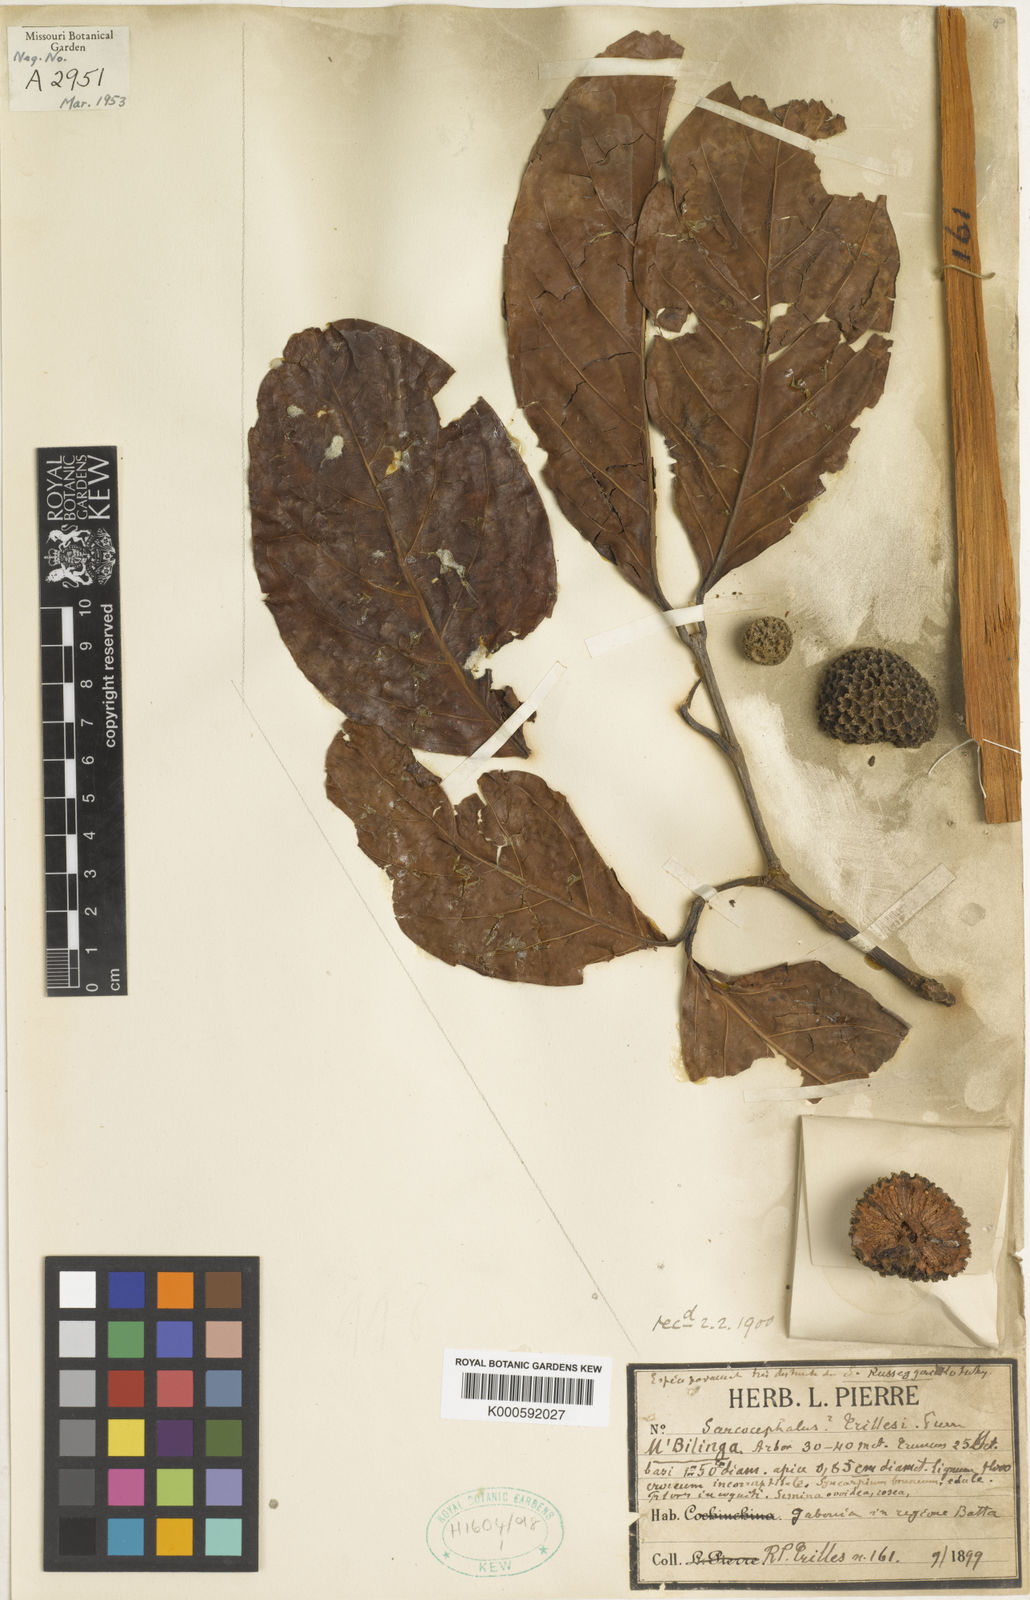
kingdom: Plantae
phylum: Tracheophyta
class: Magnoliopsida
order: Gentianales
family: Rubiaceae
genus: Nauclea
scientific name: Nauclea diderrichii
